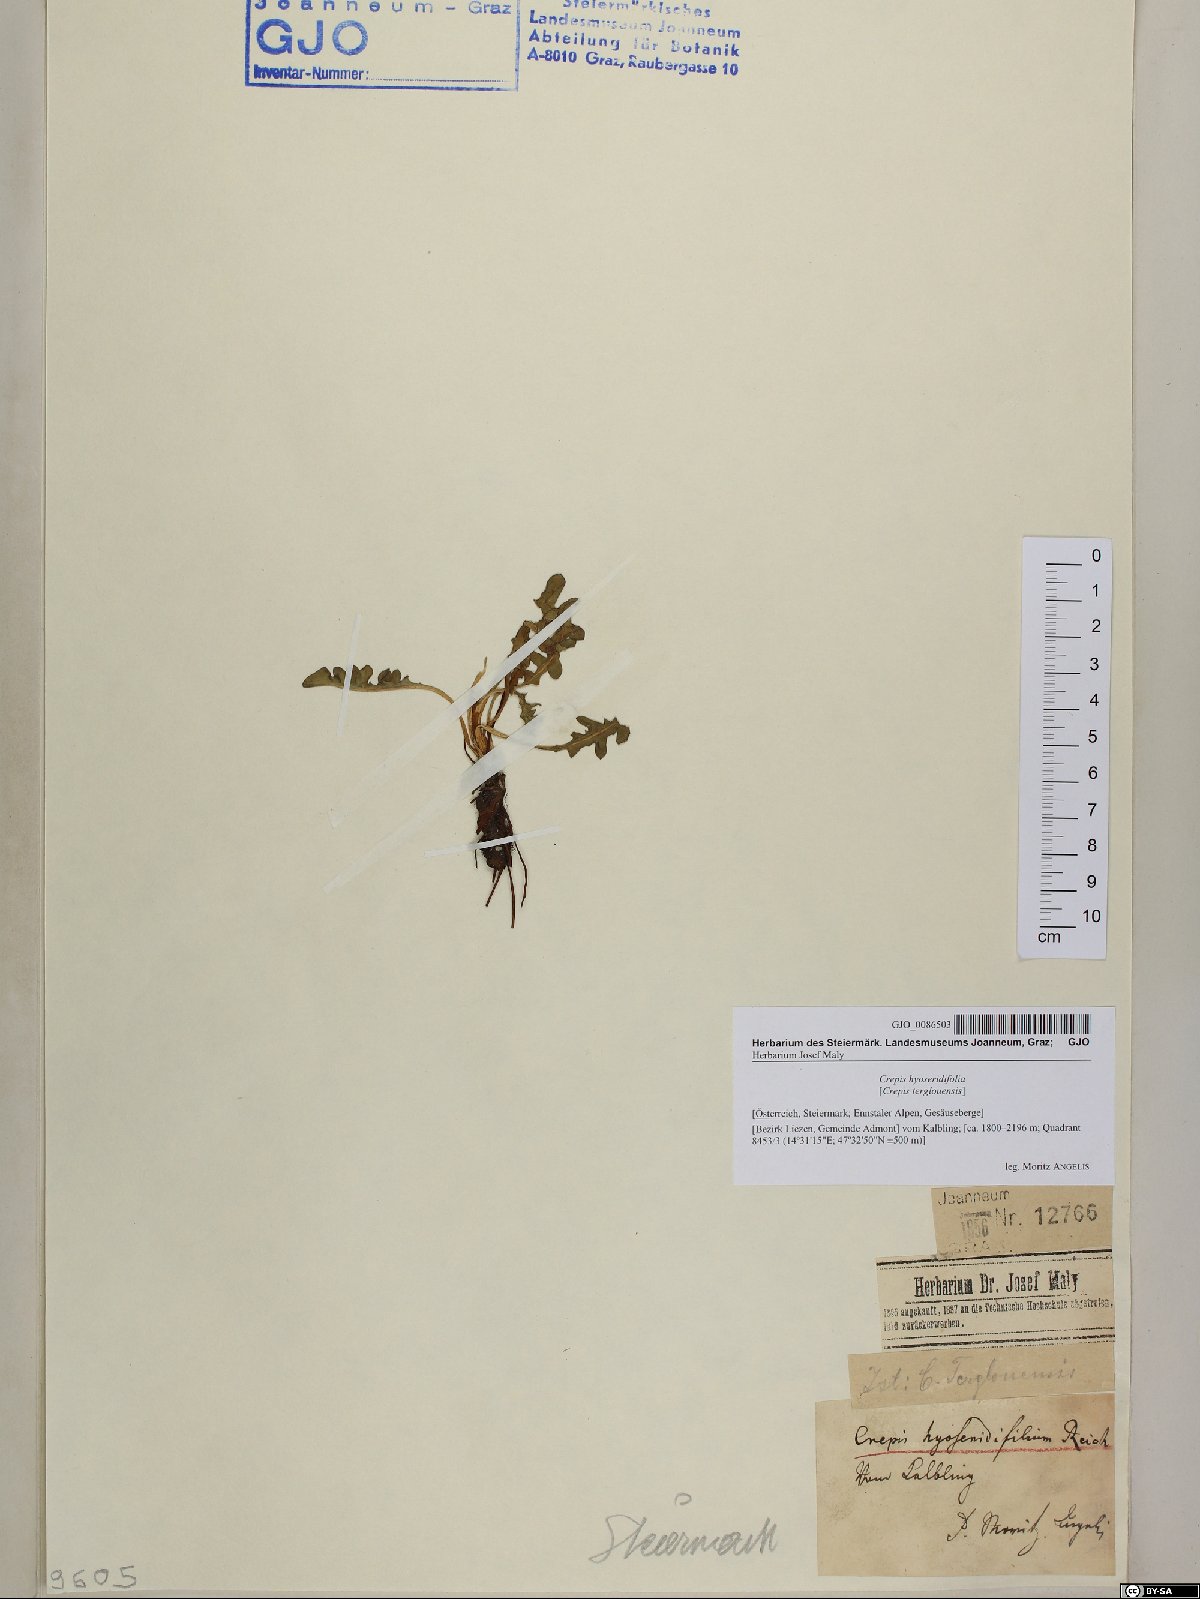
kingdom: Plantae
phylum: Tracheophyta
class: Magnoliopsida
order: Asterales
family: Asteraceae
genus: Crepis
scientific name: Crepis terglouensis
